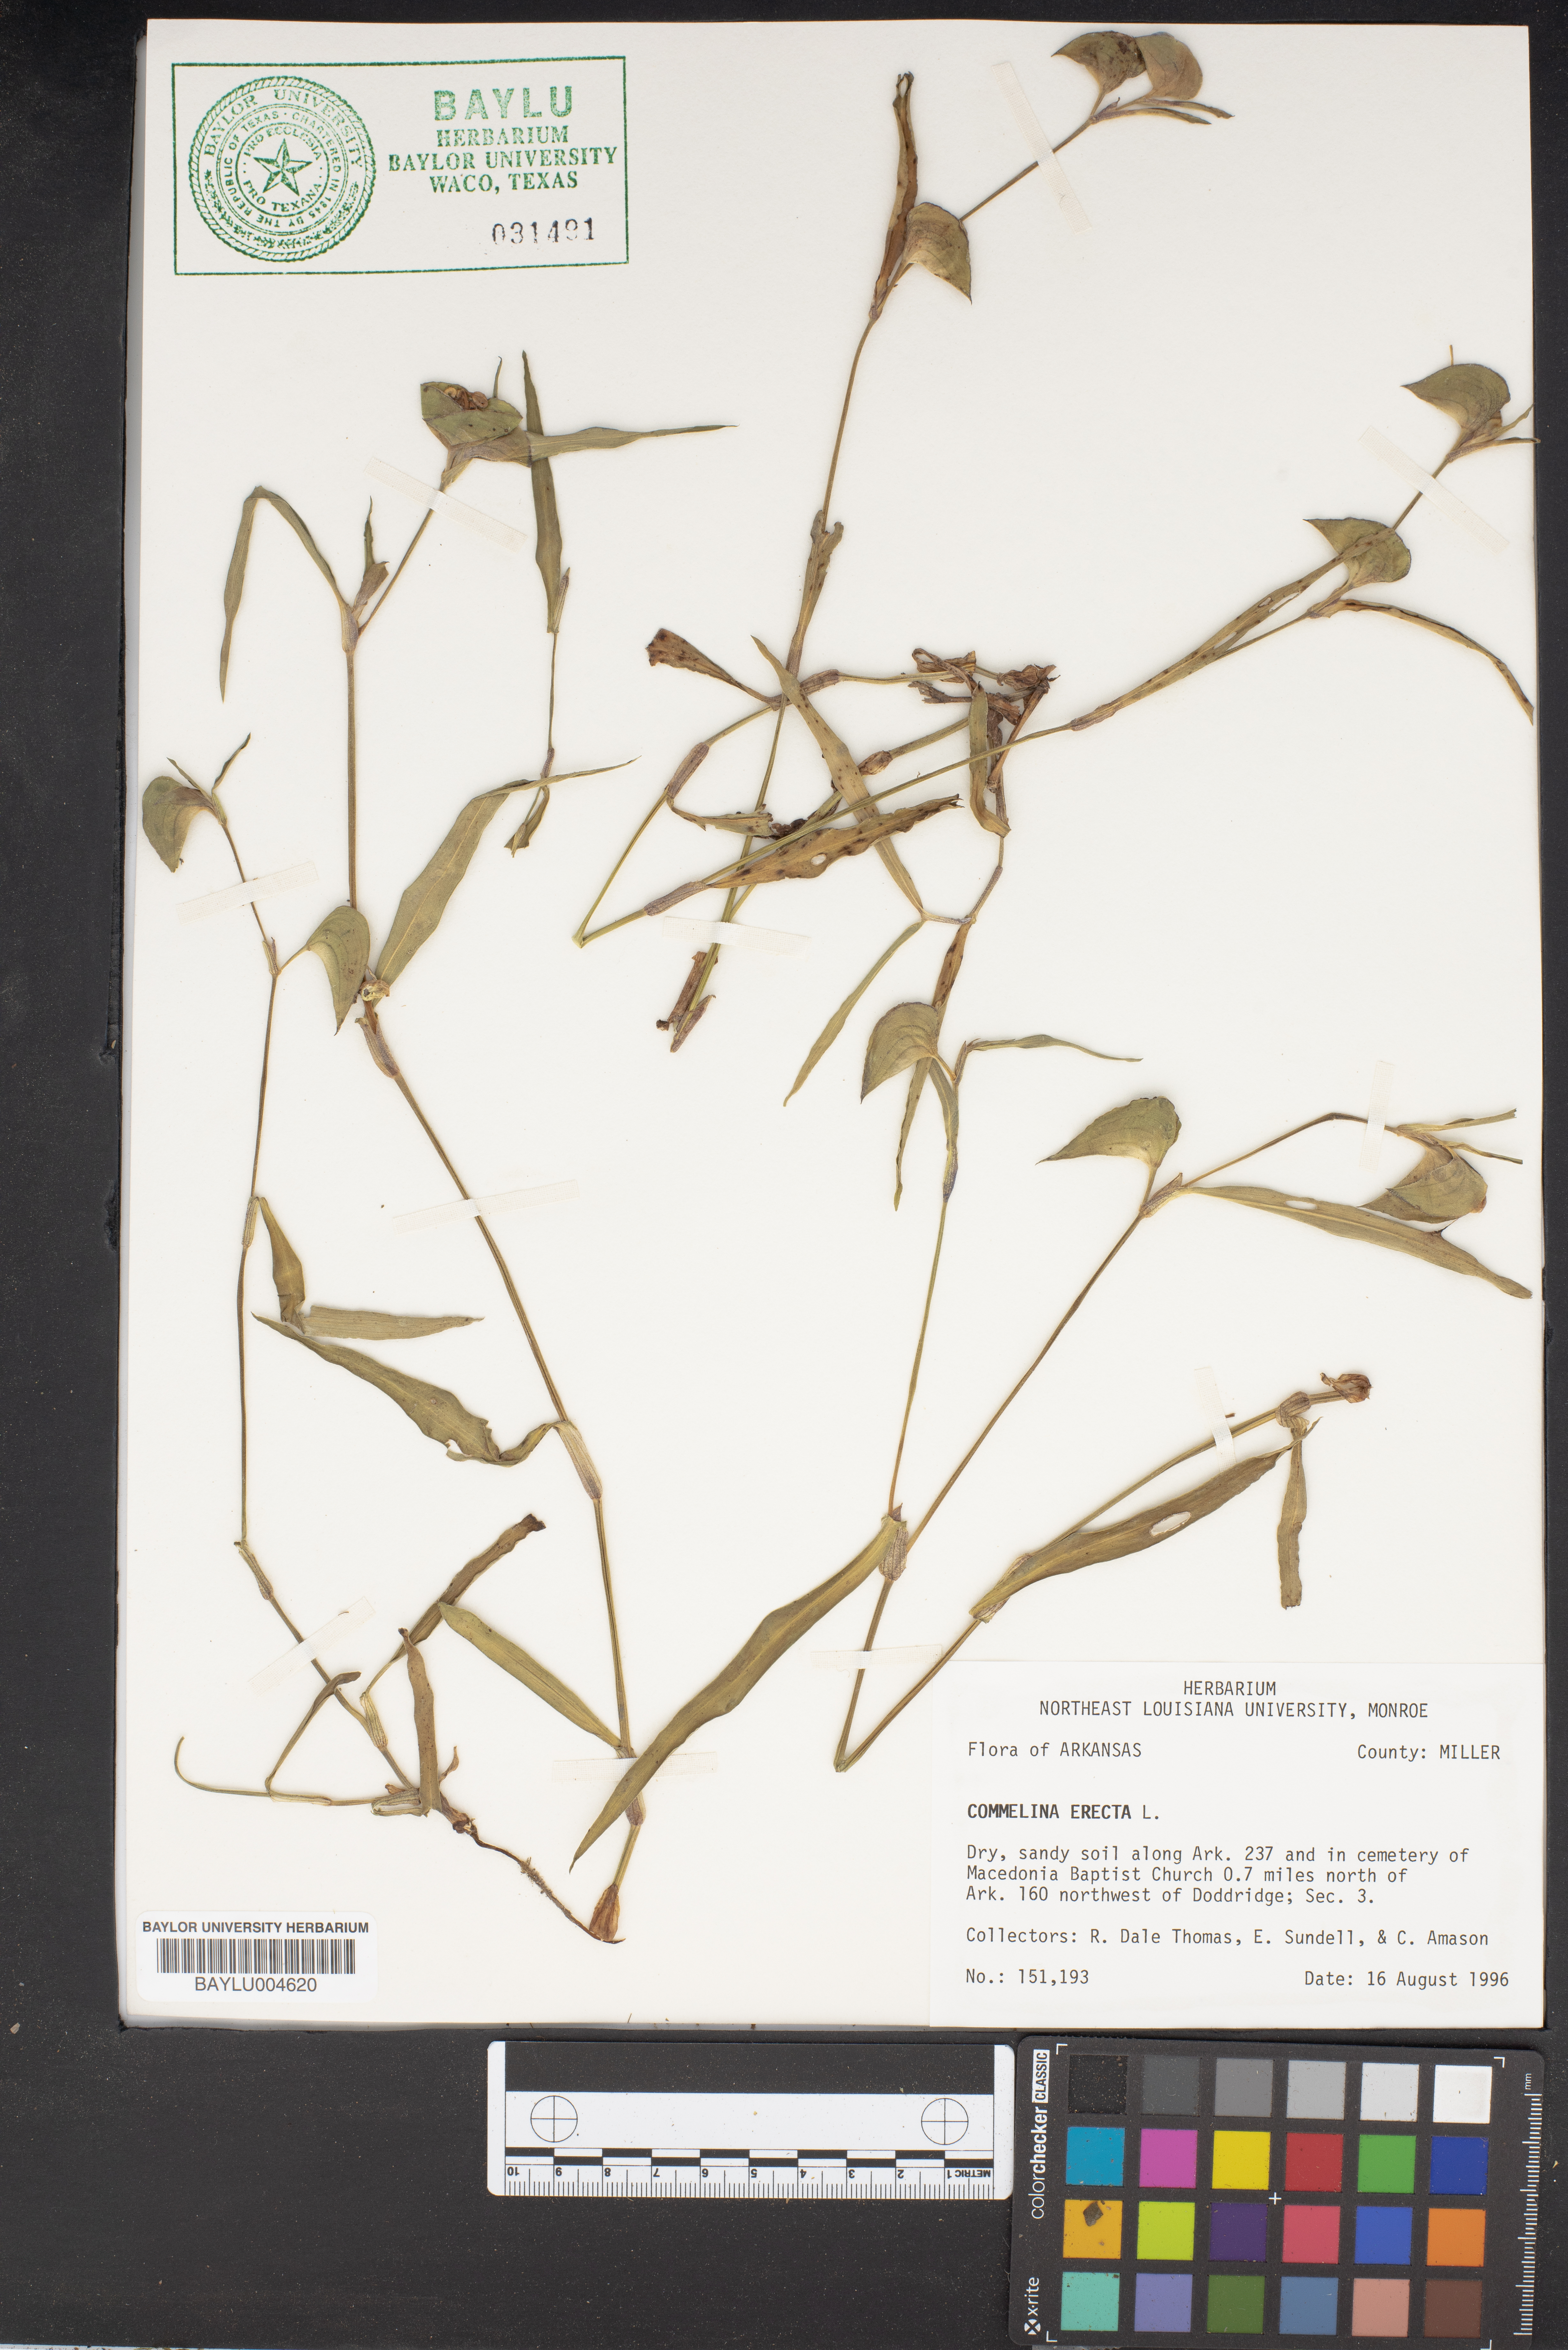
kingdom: Plantae
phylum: Tracheophyta
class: Liliopsida
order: Commelinales
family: Commelinaceae
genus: Commelina
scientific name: Commelina erecta
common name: Blousel blommetjie
